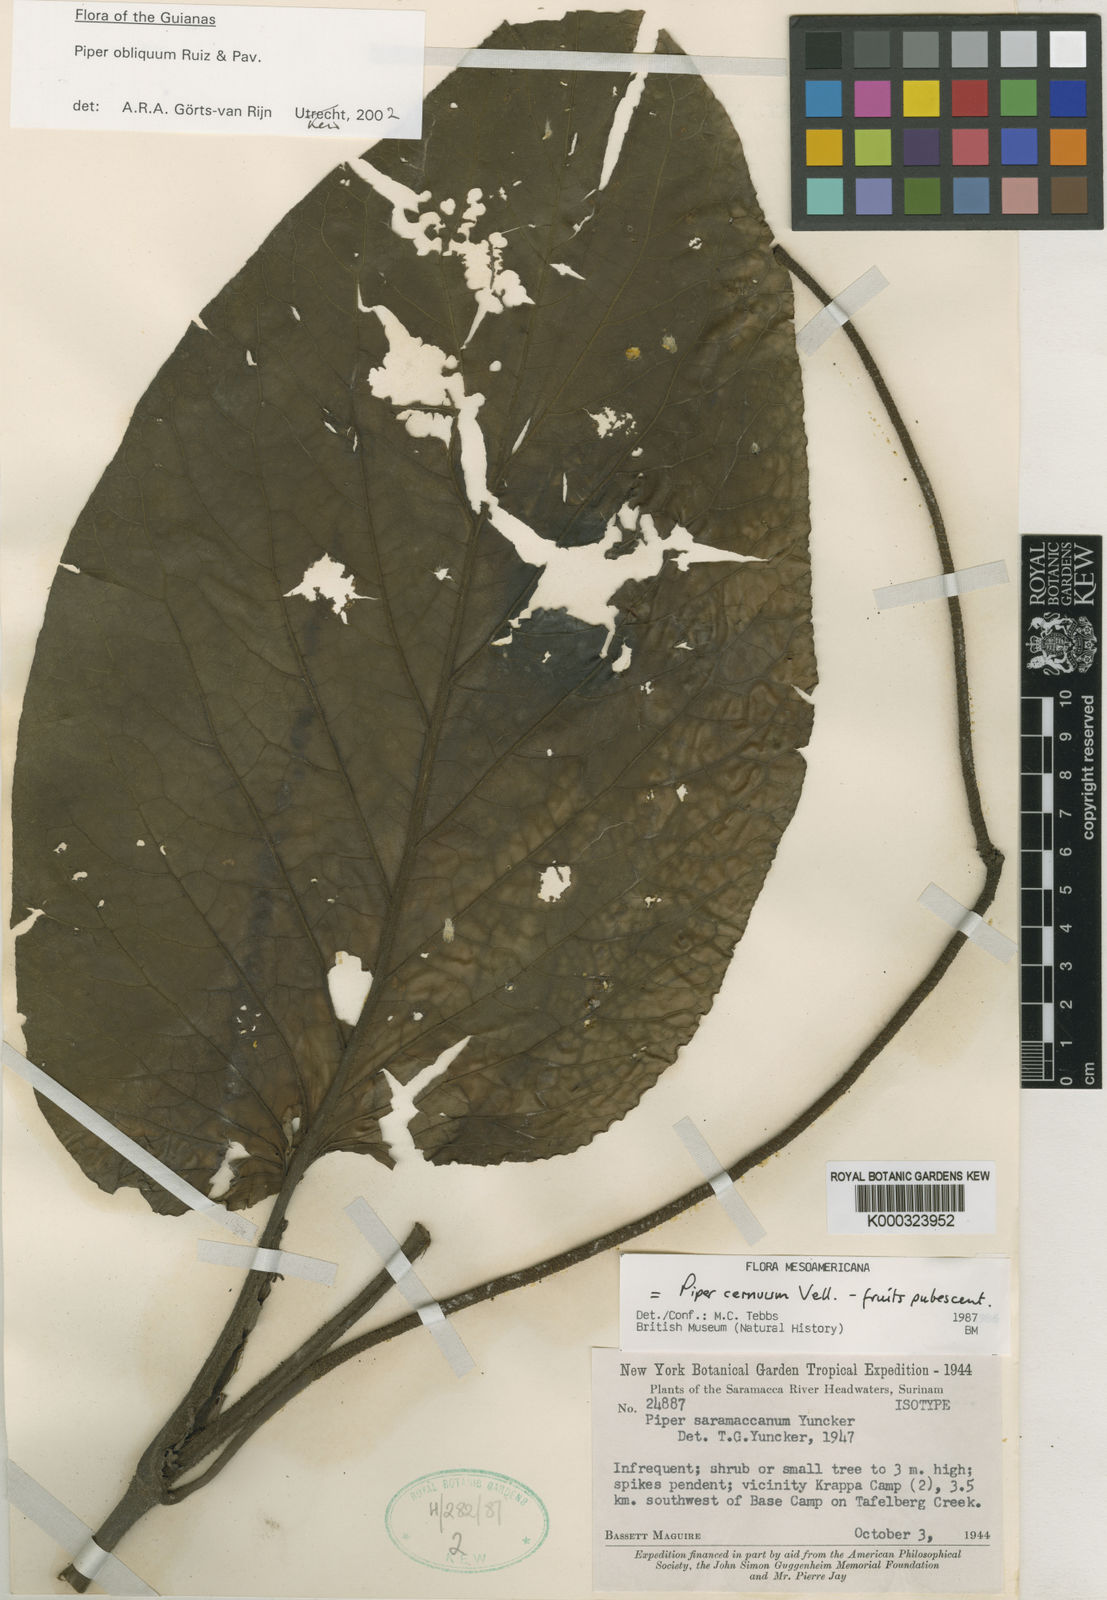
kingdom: Plantae
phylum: Tracheophyta
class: Magnoliopsida
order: Piperales
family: Piperaceae
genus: Piper
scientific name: Piper obliquum
